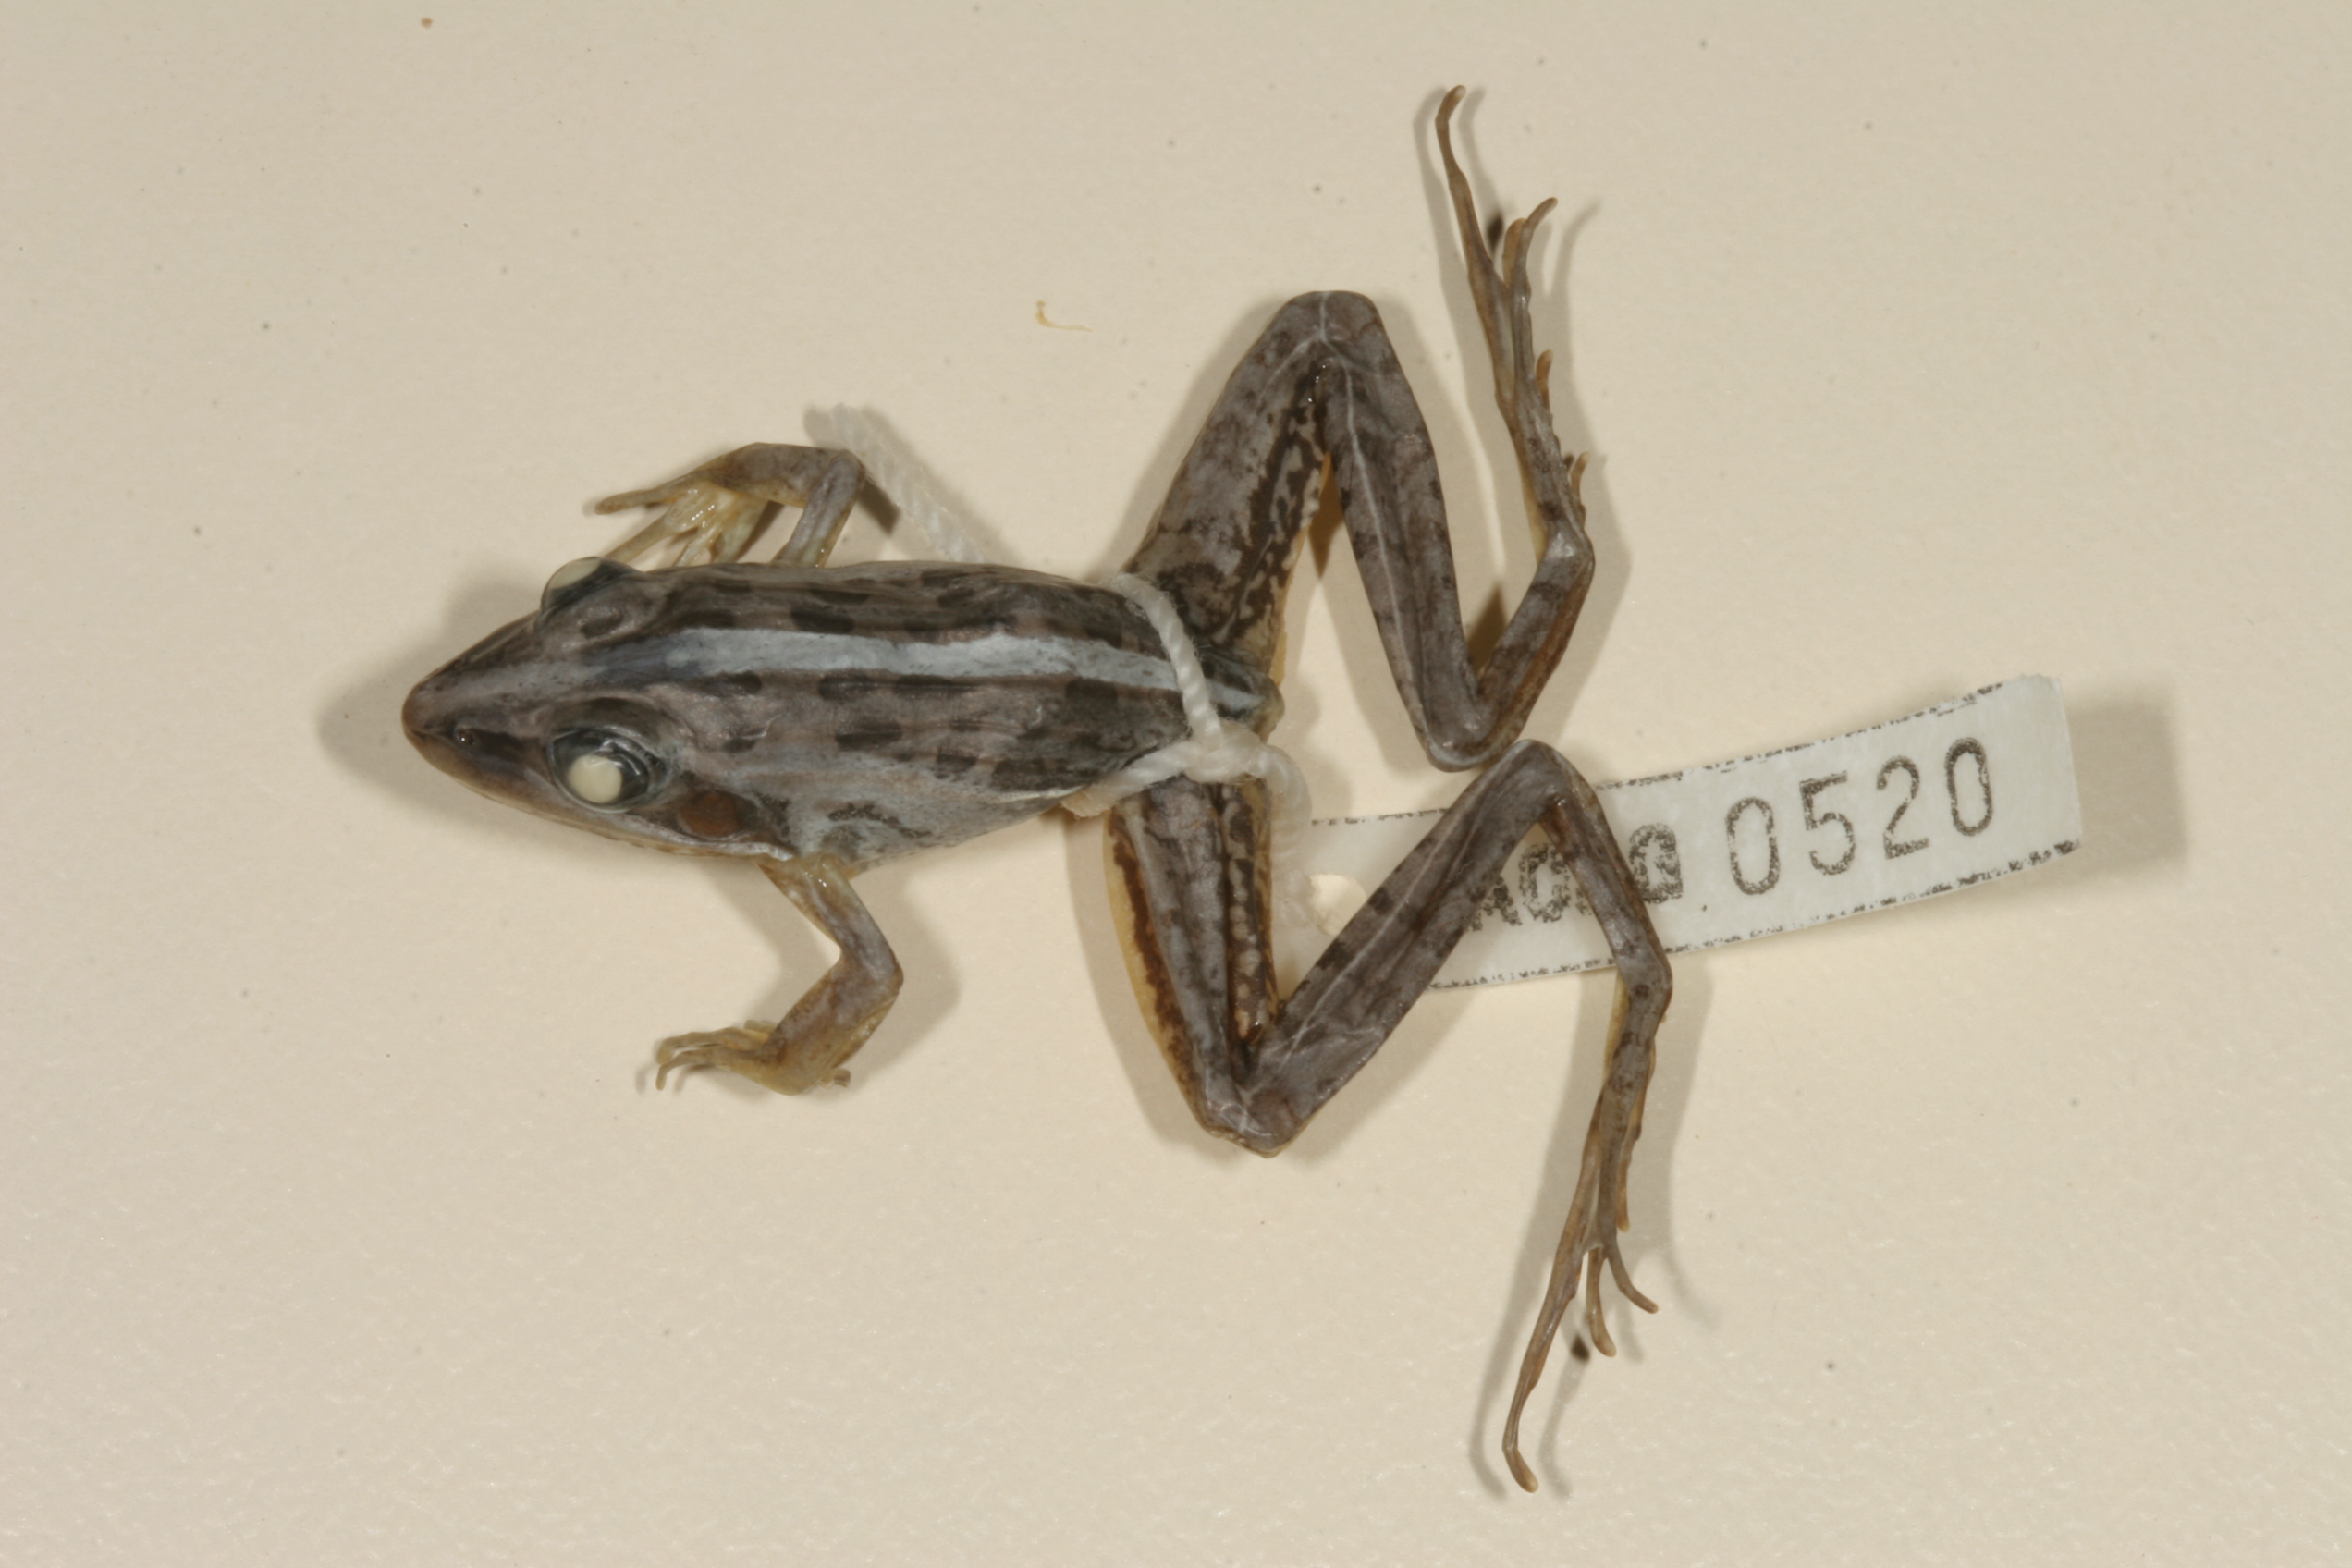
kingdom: Animalia
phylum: Chordata
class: Amphibia
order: Anura
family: Ptychadenidae
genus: Ptychadena
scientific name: Ptychadena mascareniensis
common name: Mascarene grass frog
